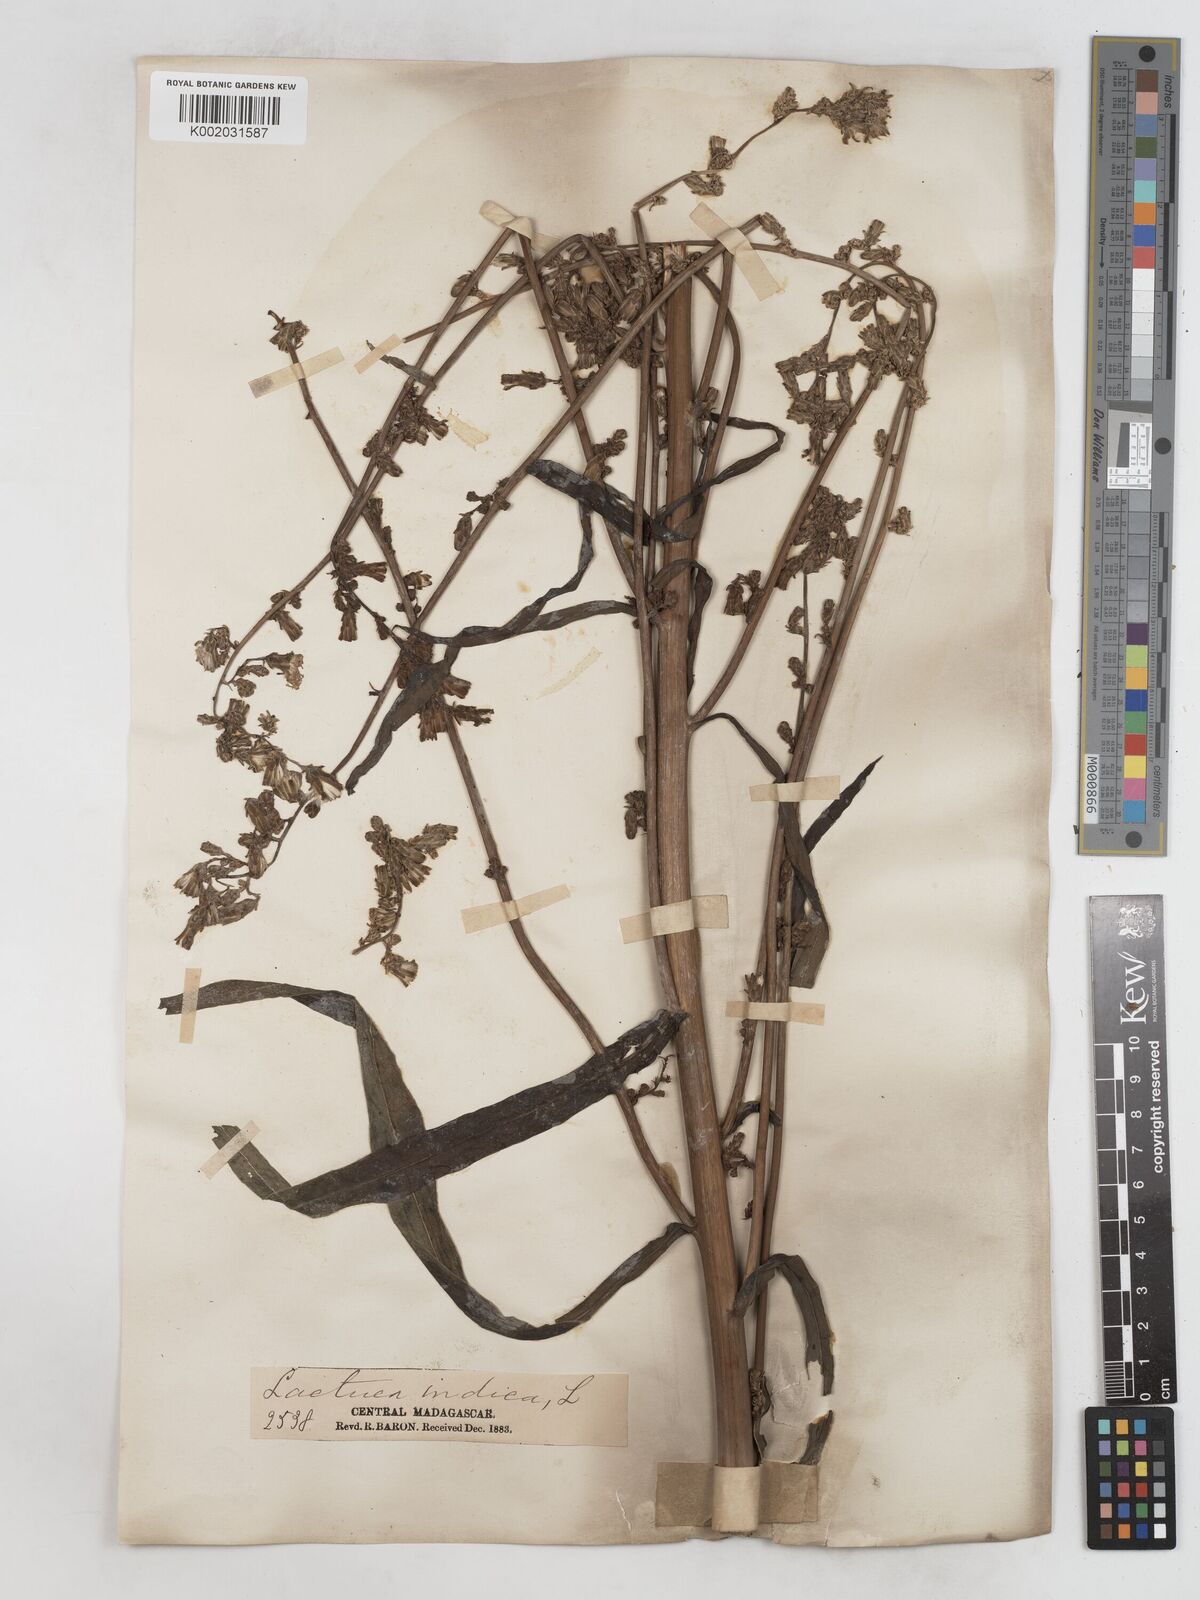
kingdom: Plantae
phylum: Tracheophyta
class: Magnoliopsida
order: Asterales
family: Asteraceae
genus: Lactuca
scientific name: Lactuca
